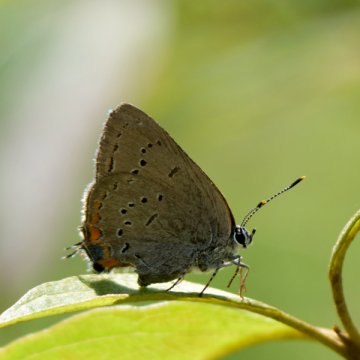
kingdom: Animalia
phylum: Arthropoda
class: Insecta
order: Lepidoptera
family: Lycaenidae
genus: Strymon
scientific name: Strymon acadica
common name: Acadian Hairstreak
